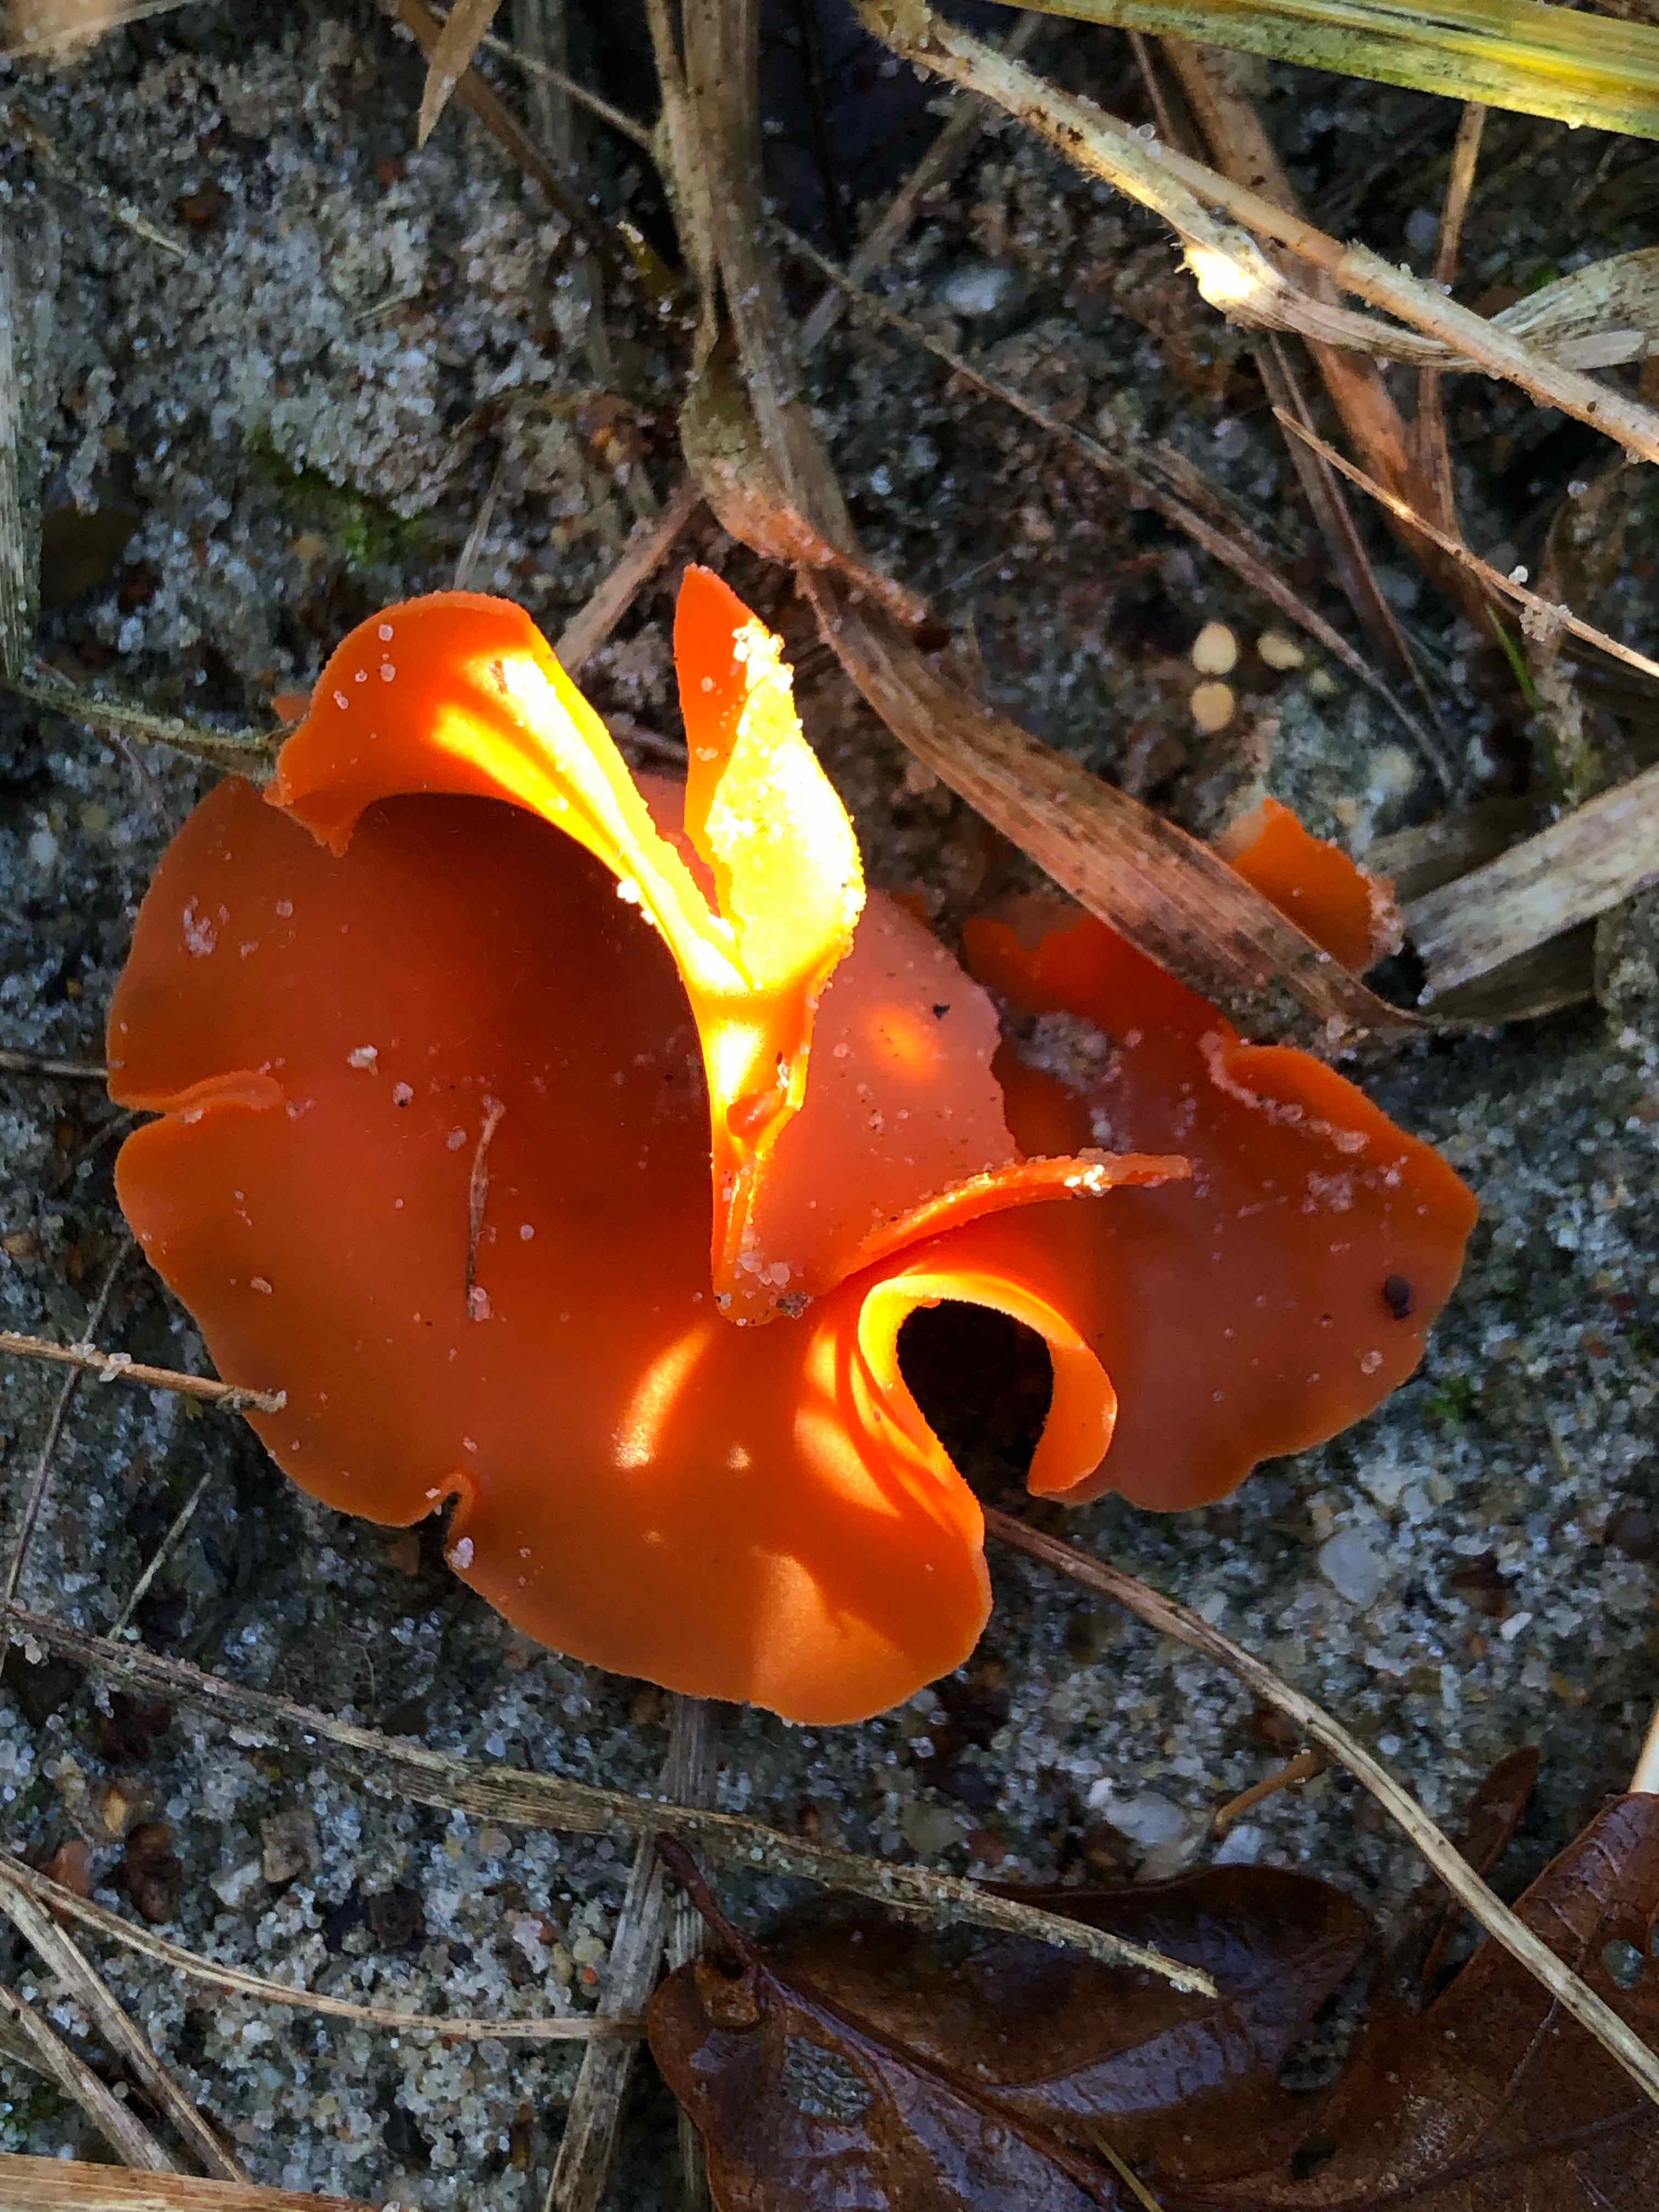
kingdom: Fungi
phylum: Ascomycota
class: Pezizomycetes
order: Pezizales
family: Pyronemataceae
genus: Aleuria
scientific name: Aleuria aurantia
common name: almindelig orangebæger
